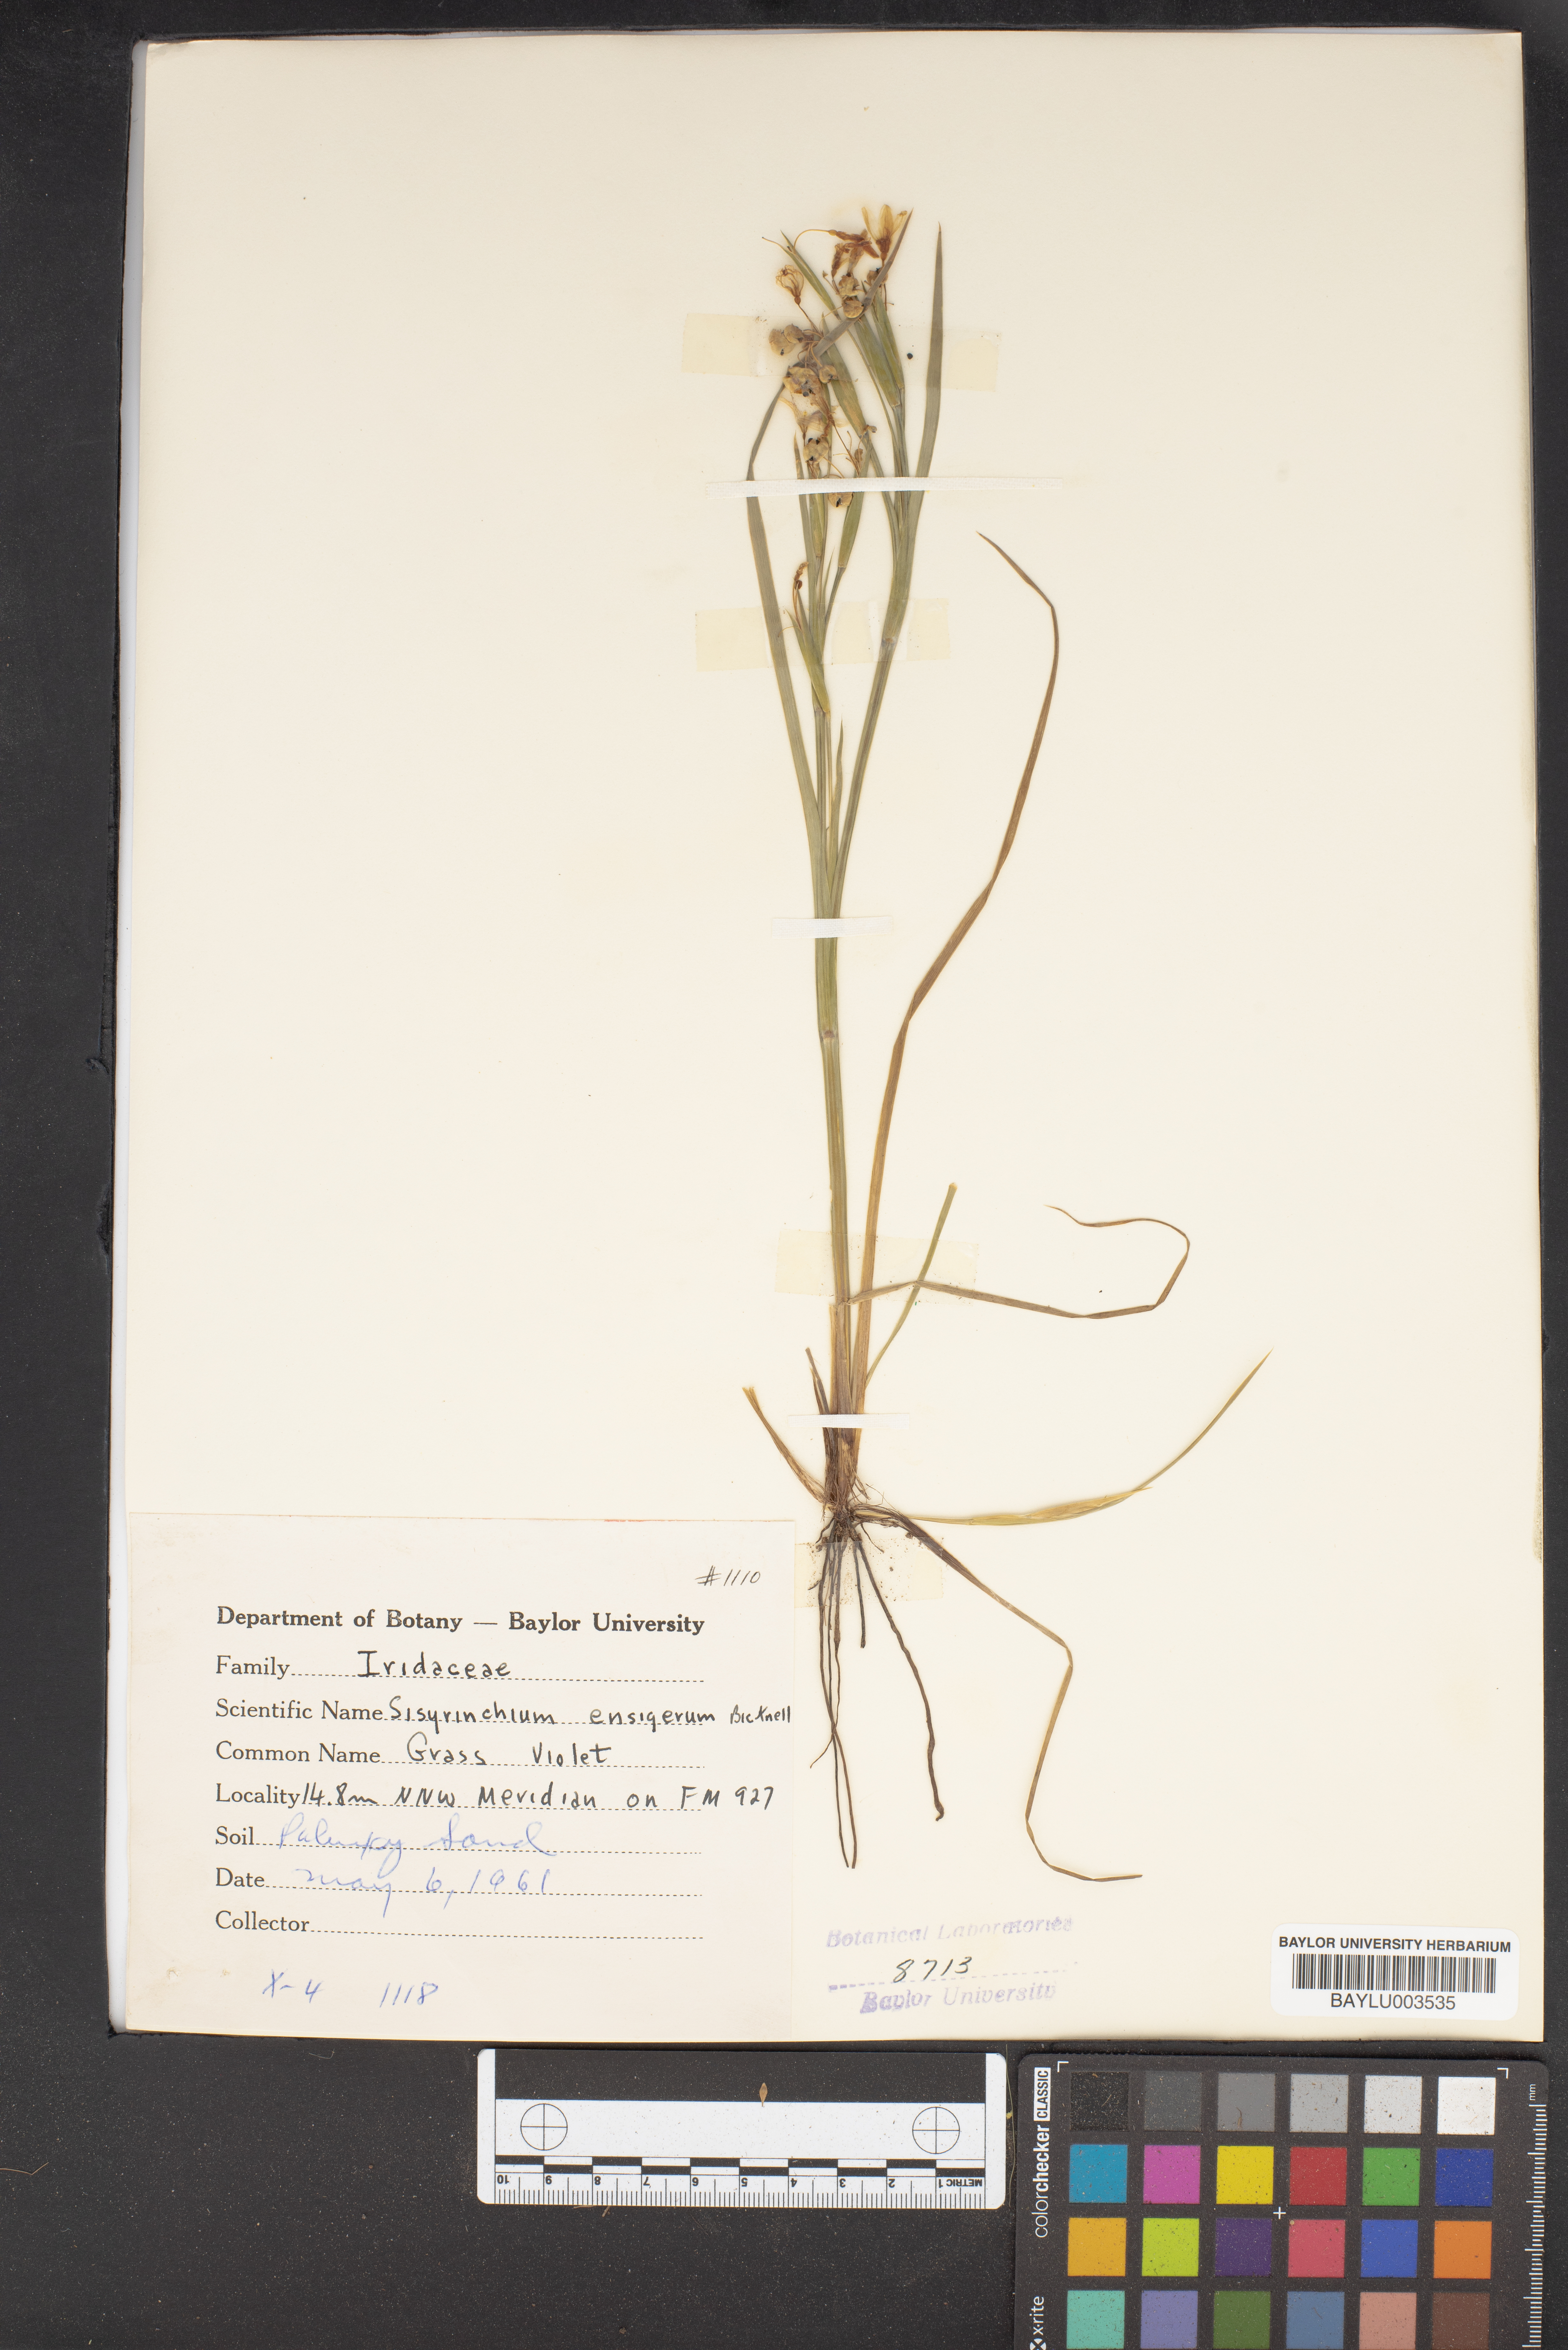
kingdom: Plantae
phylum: Tracheophyta
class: Liliopsida
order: Asparagales
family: Iridaceae
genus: Sisyrinchium
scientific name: Sisyrinchium ensigerum
